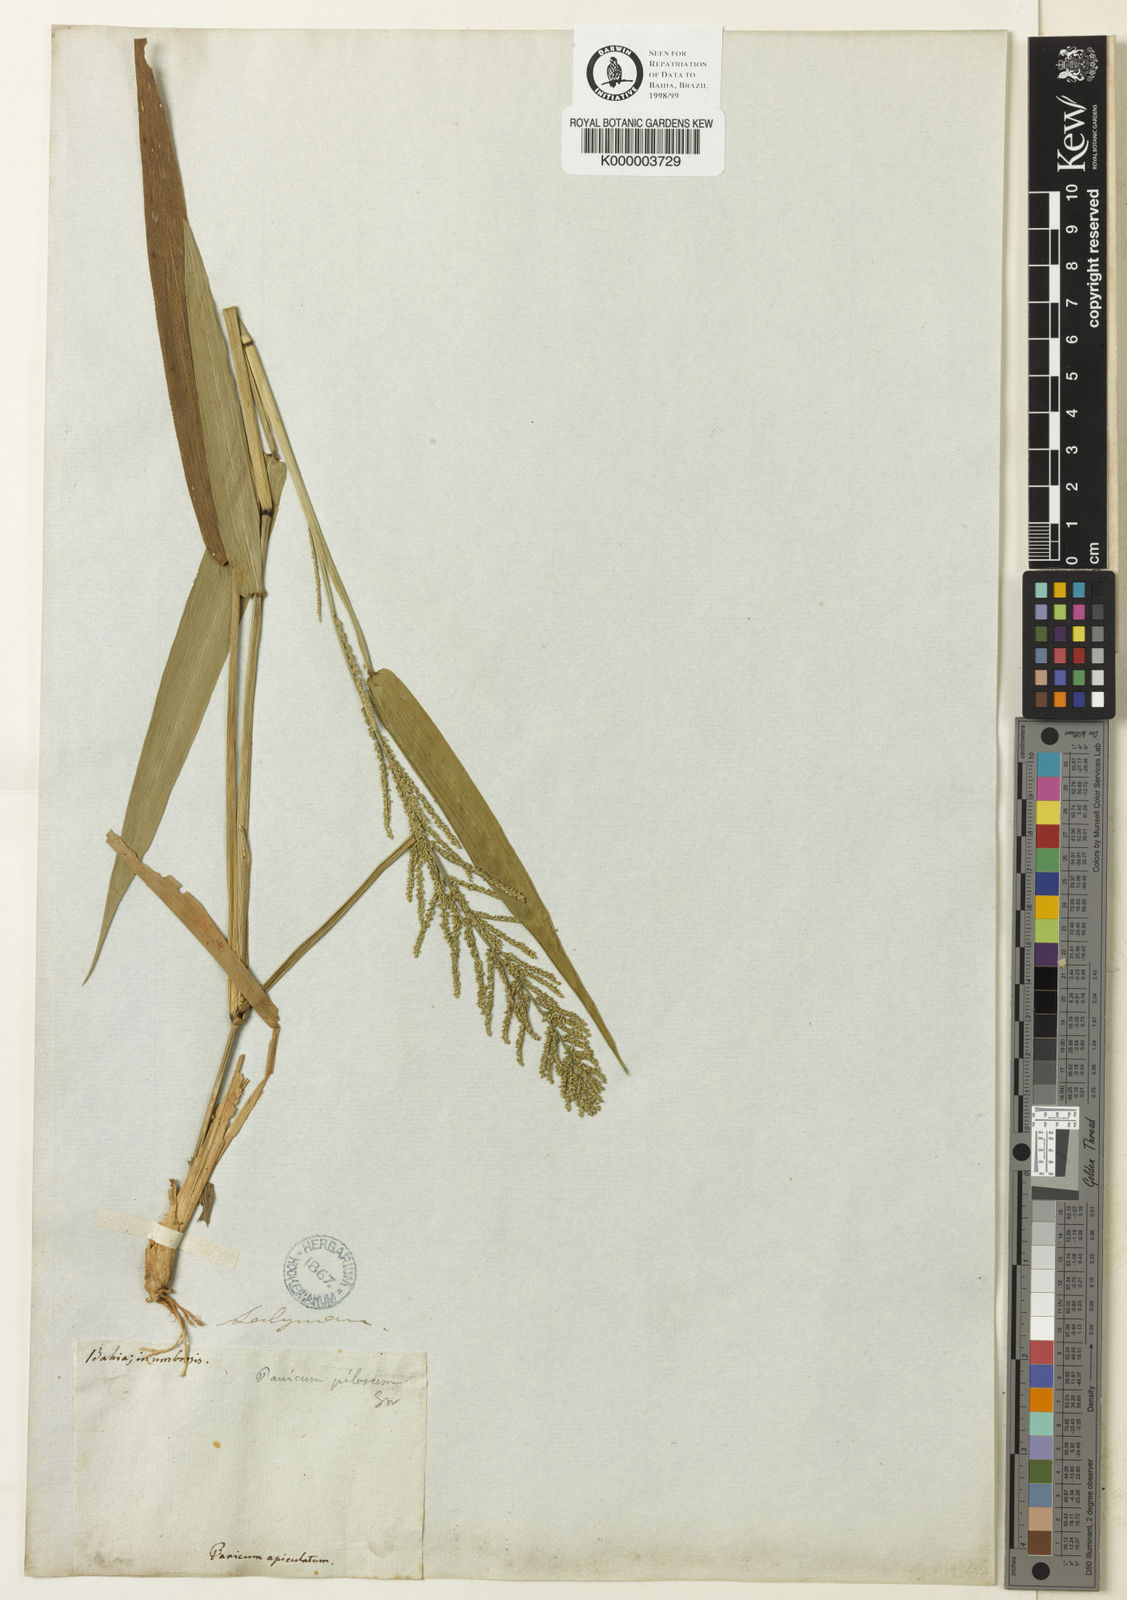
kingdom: Plantae
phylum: Tracheophyta
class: Liliopsida
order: Poales
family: Poaceae
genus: Rugoloa
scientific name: Rugoloa pilosa
